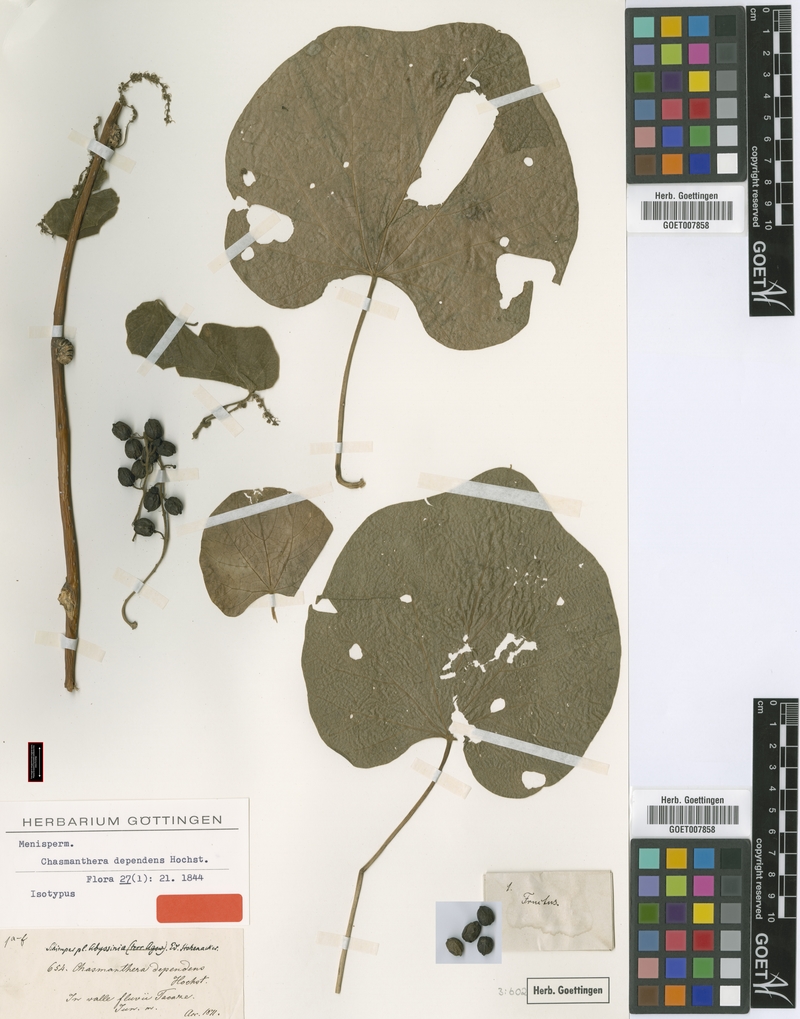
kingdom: Plantae
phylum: Tracheophyta
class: Magnoliopsida
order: Ranunculales
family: Menispermaceae
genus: Chasmanthera
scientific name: Chasmanthera dependens
